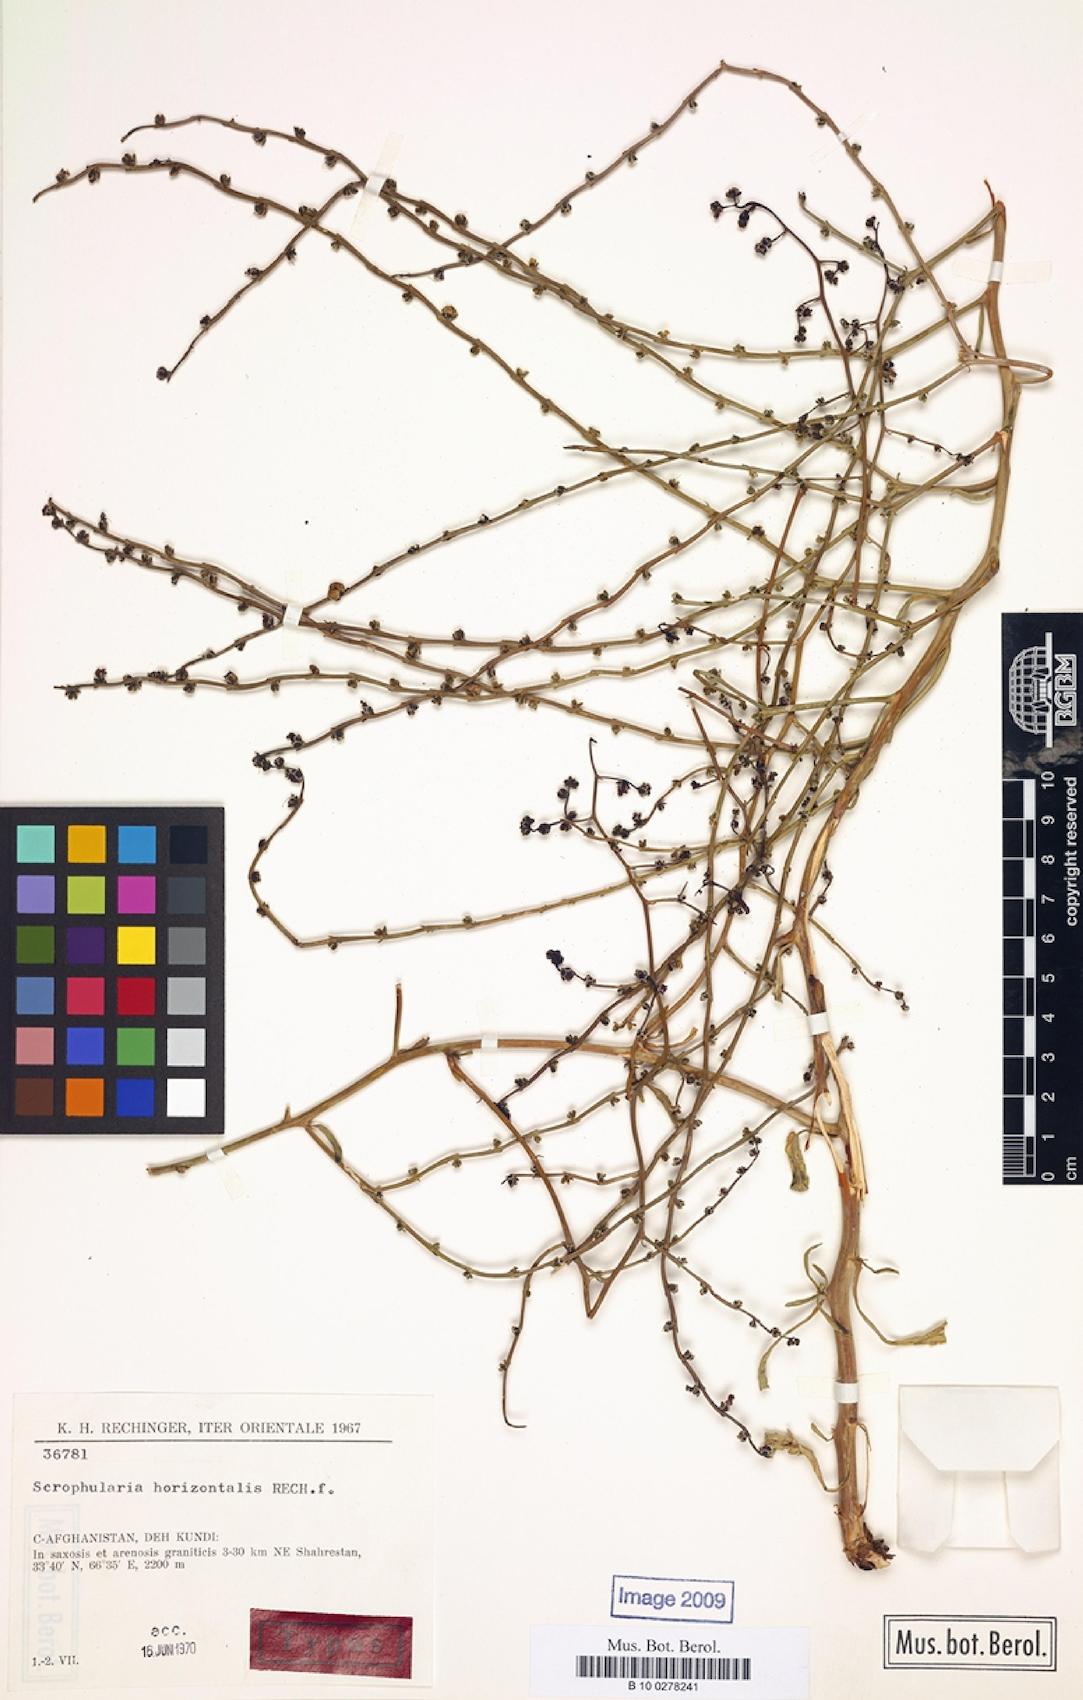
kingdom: Plantae
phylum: Tracheophyta
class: Magnoliopsida
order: Lamiales
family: Scrophulariaceae
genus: Scrophularia
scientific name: Scrophularia horizontalis
